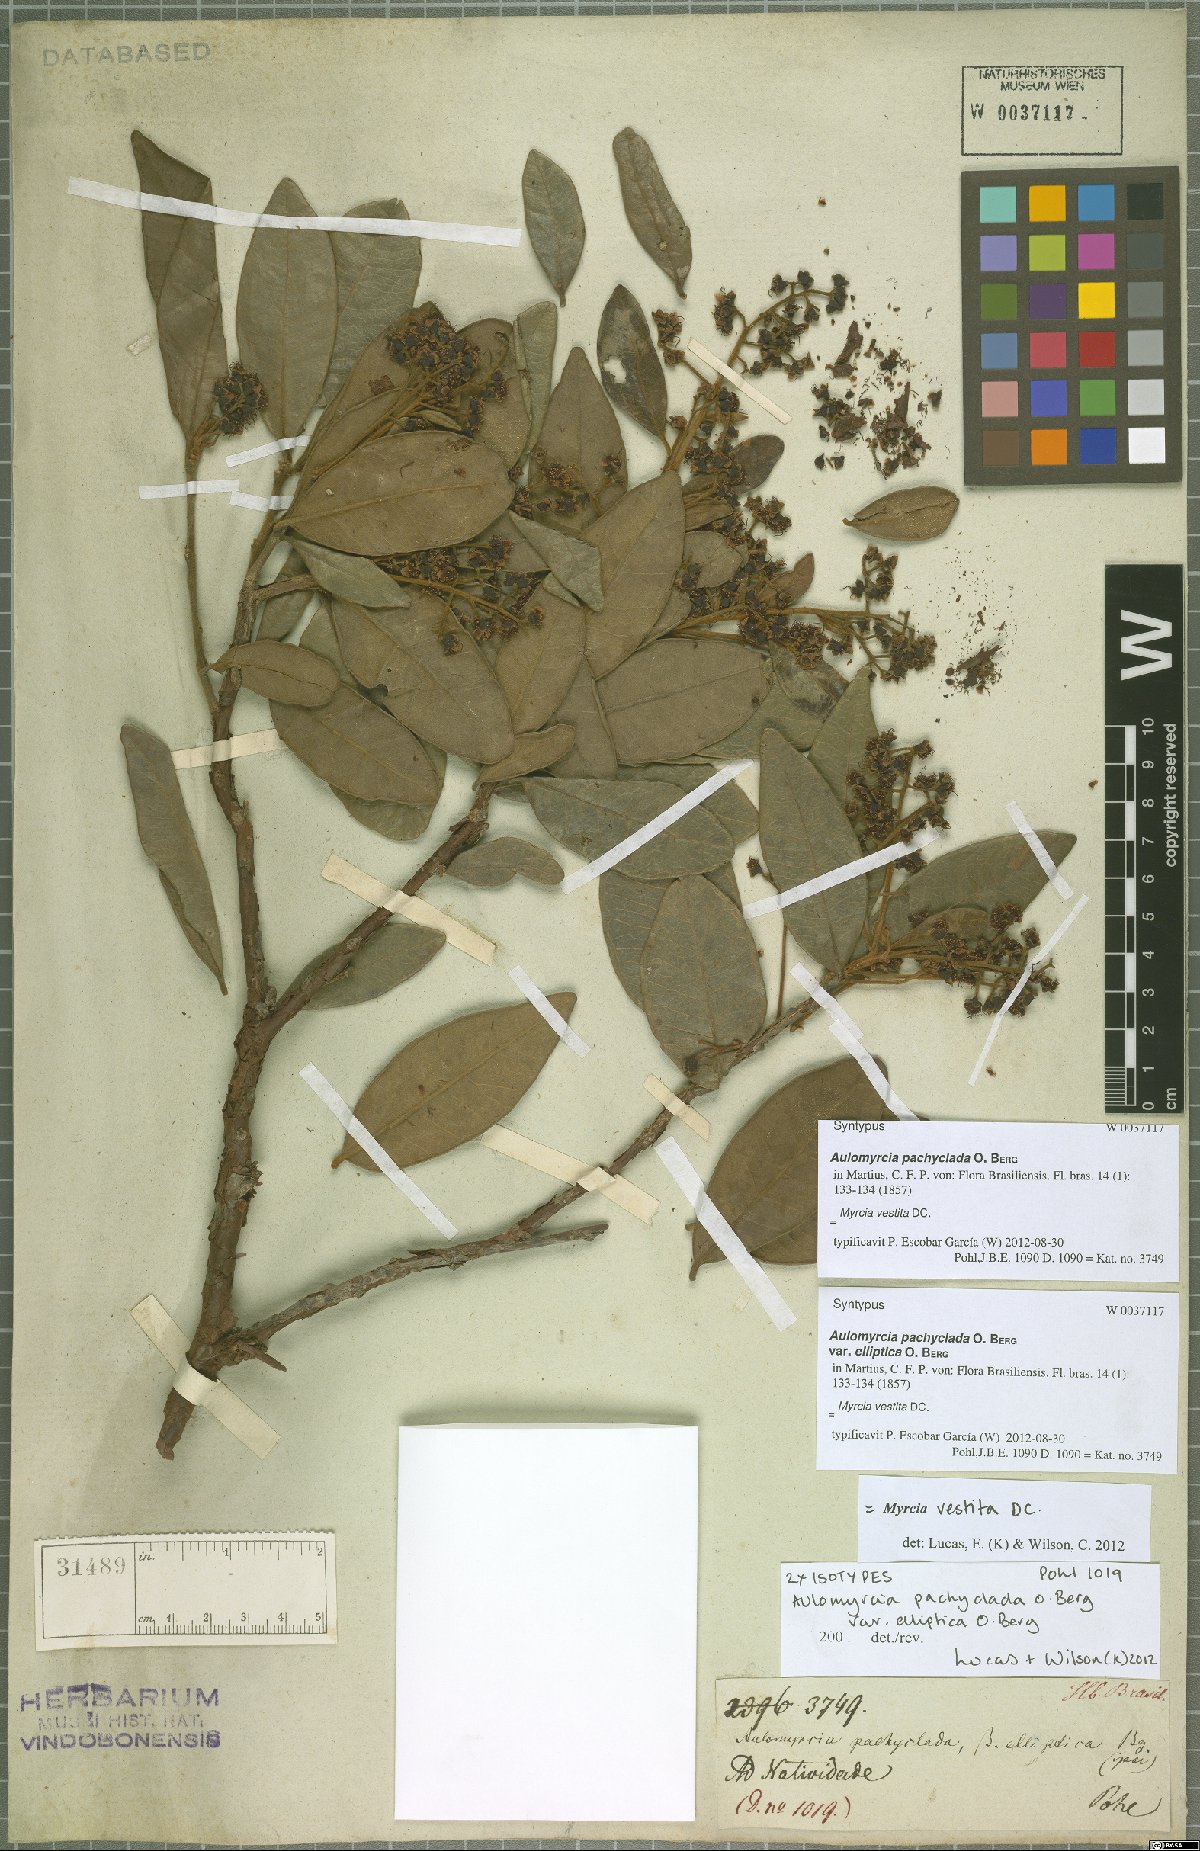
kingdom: Plantae
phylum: Tracheophyta
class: Magnoliopsida
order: Myrtales
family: Myrtaceae
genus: Myrcia
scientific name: Myrcia vestita
